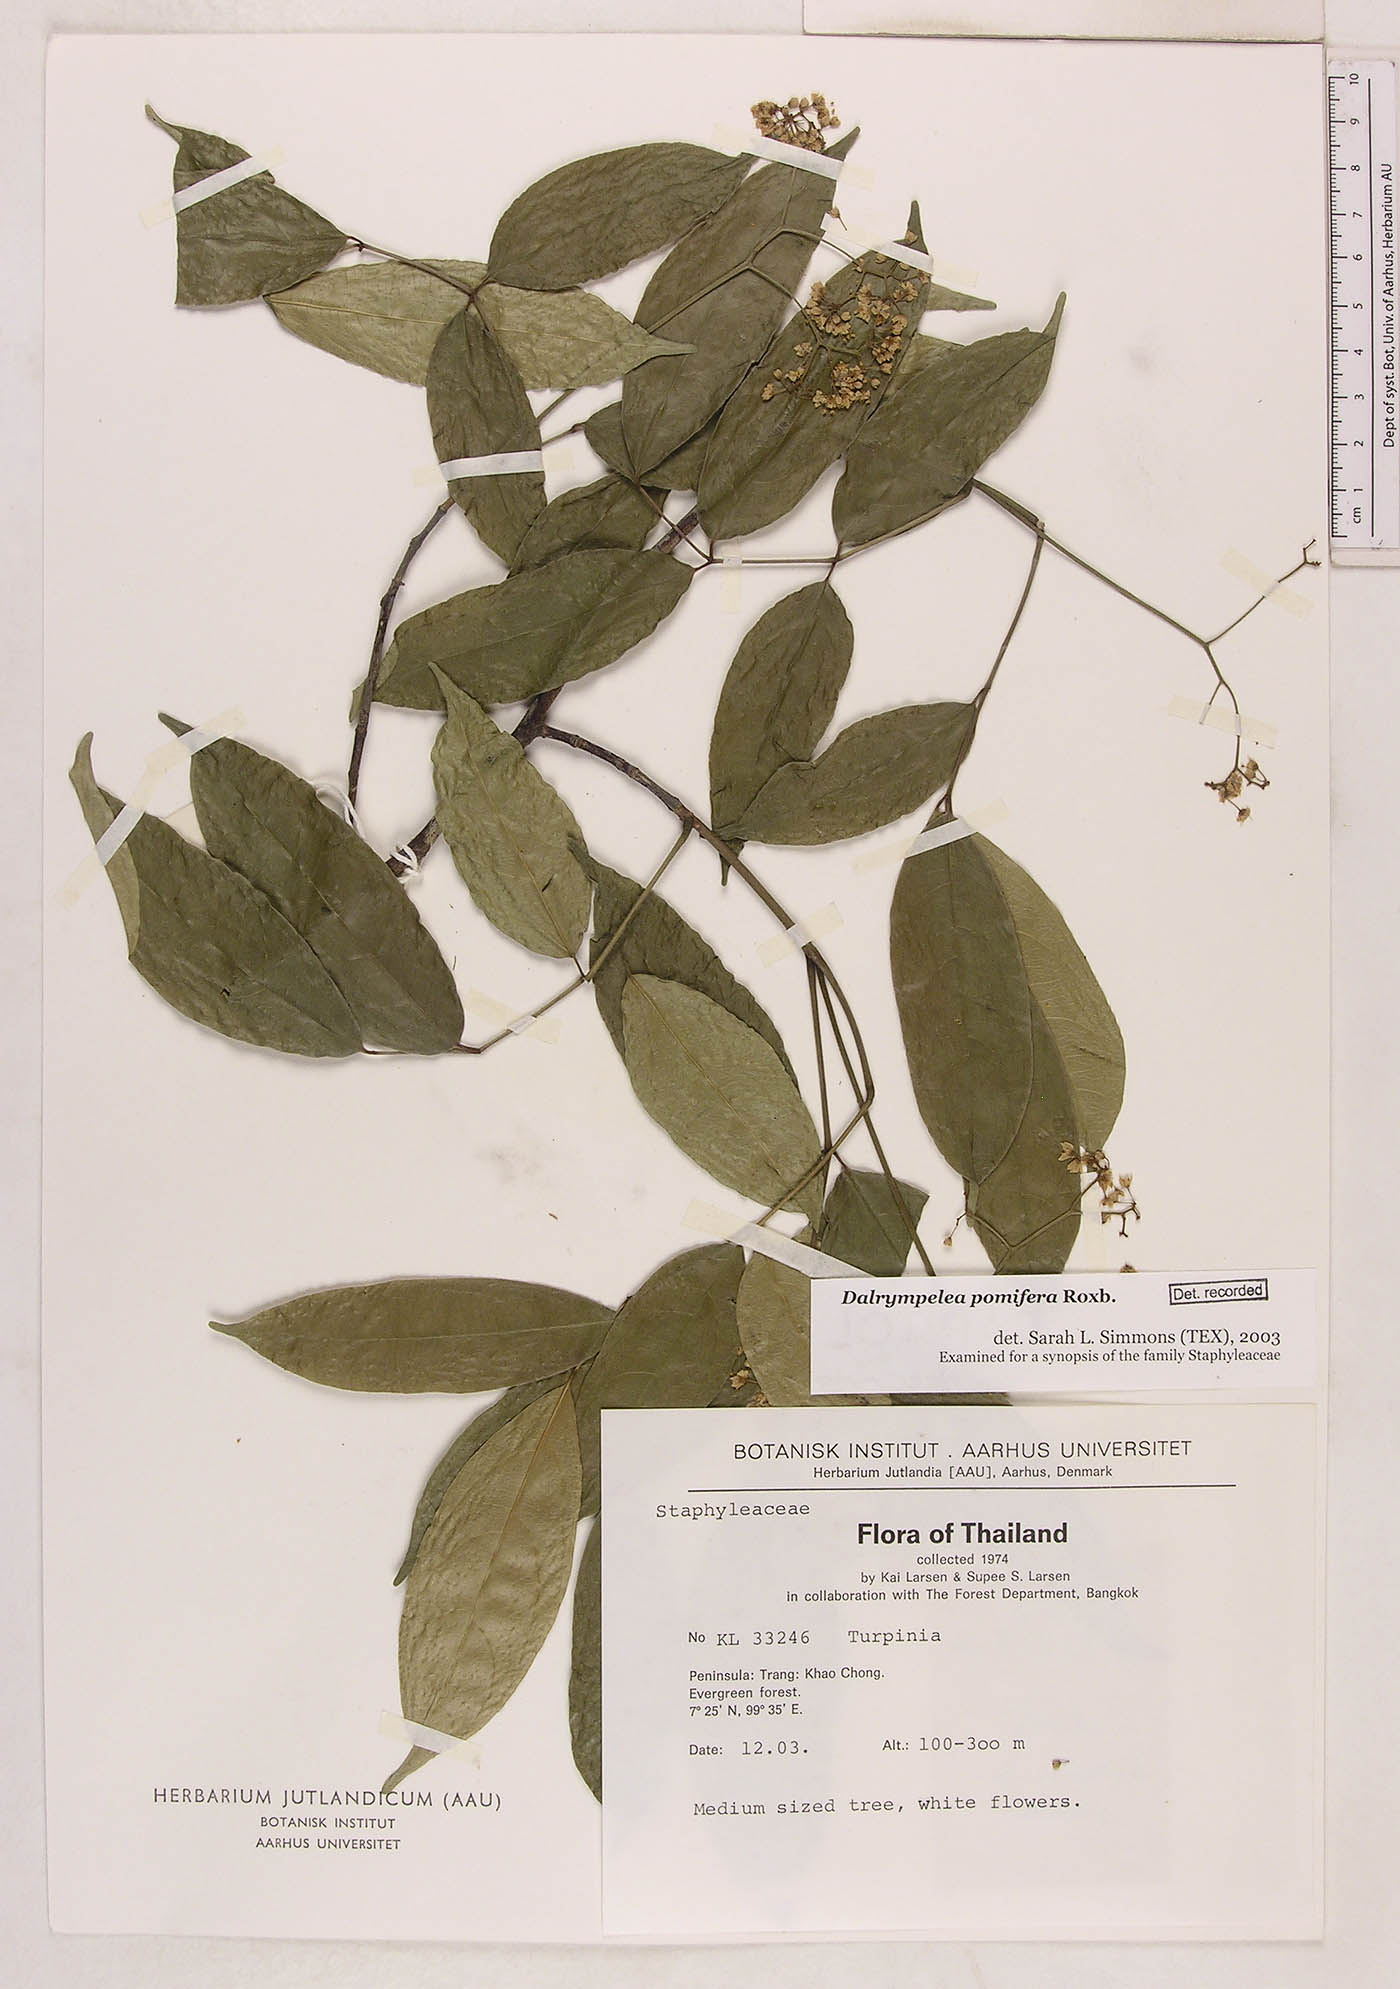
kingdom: Plantae
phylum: Tracheophyta
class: Magnoliopsida
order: Sapindales
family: Simaroubaceae
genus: Picrasma
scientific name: Picrasma javanica
